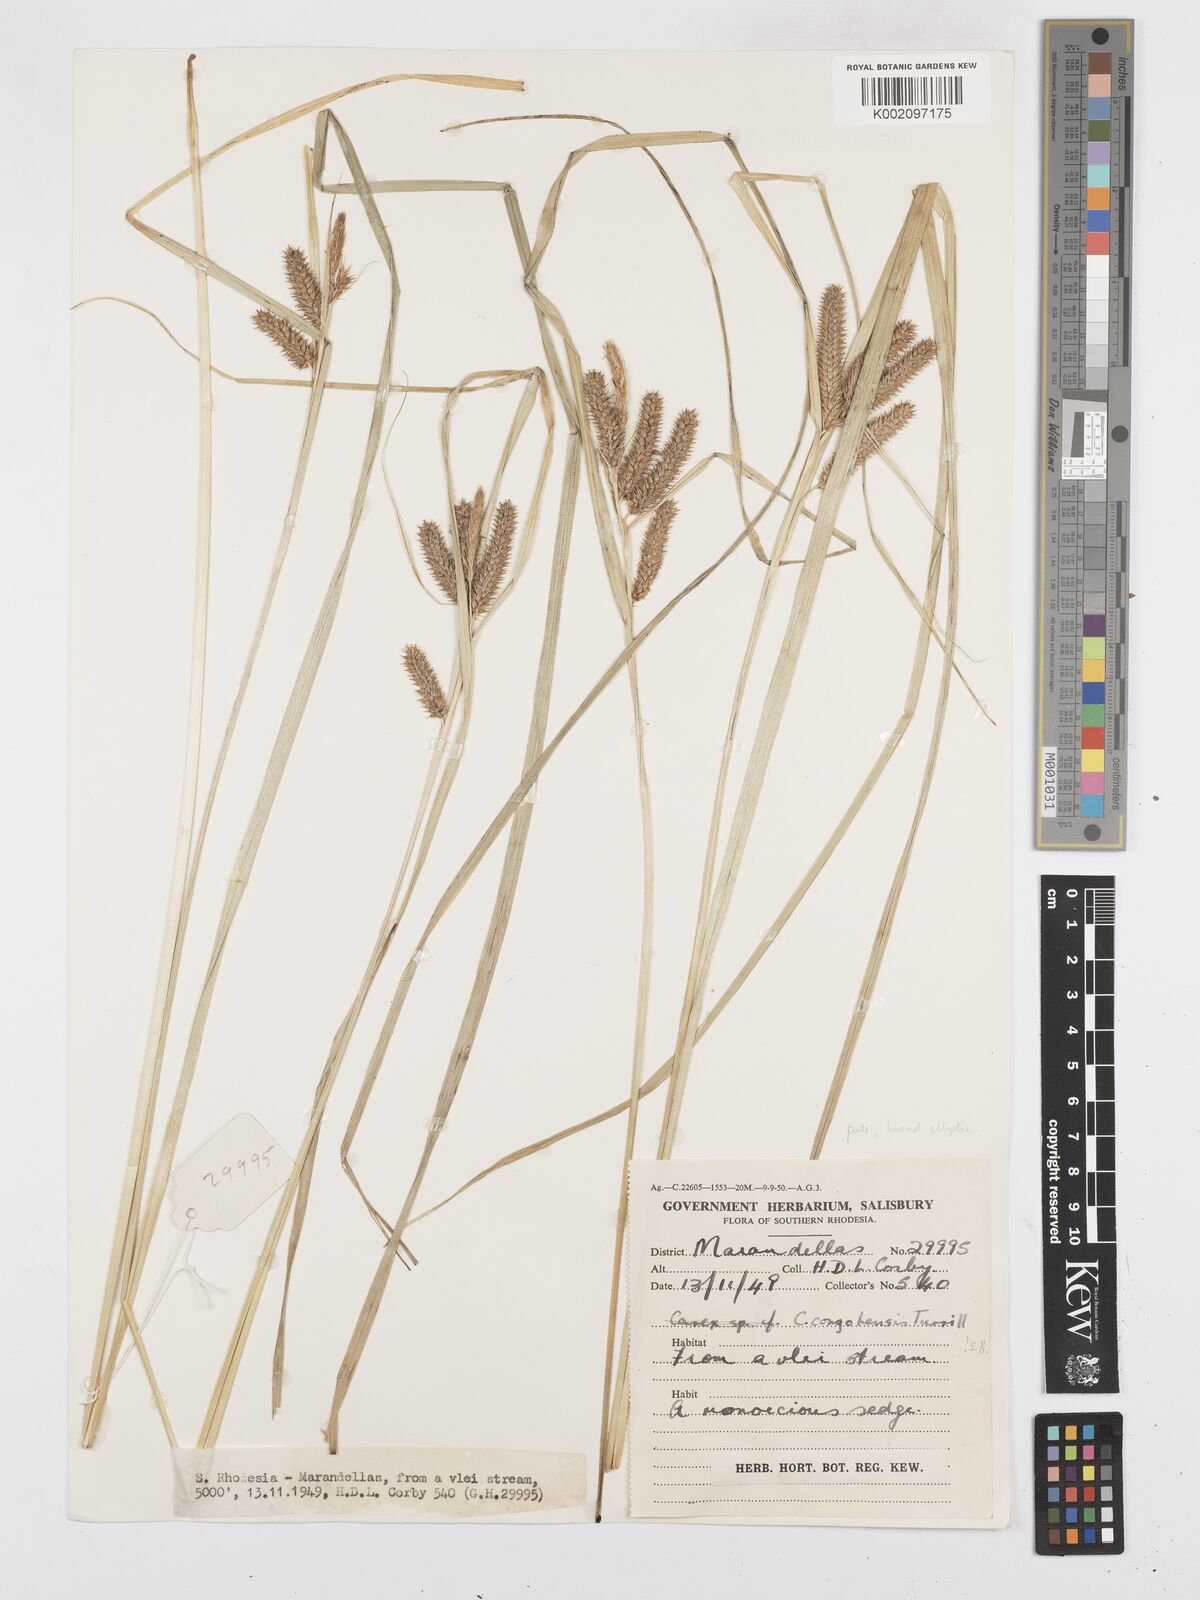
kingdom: Plantae
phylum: Tracheophyta
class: Liliopsida
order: Poales
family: Cyperaceae
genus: Carex
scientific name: Carex congolensis
